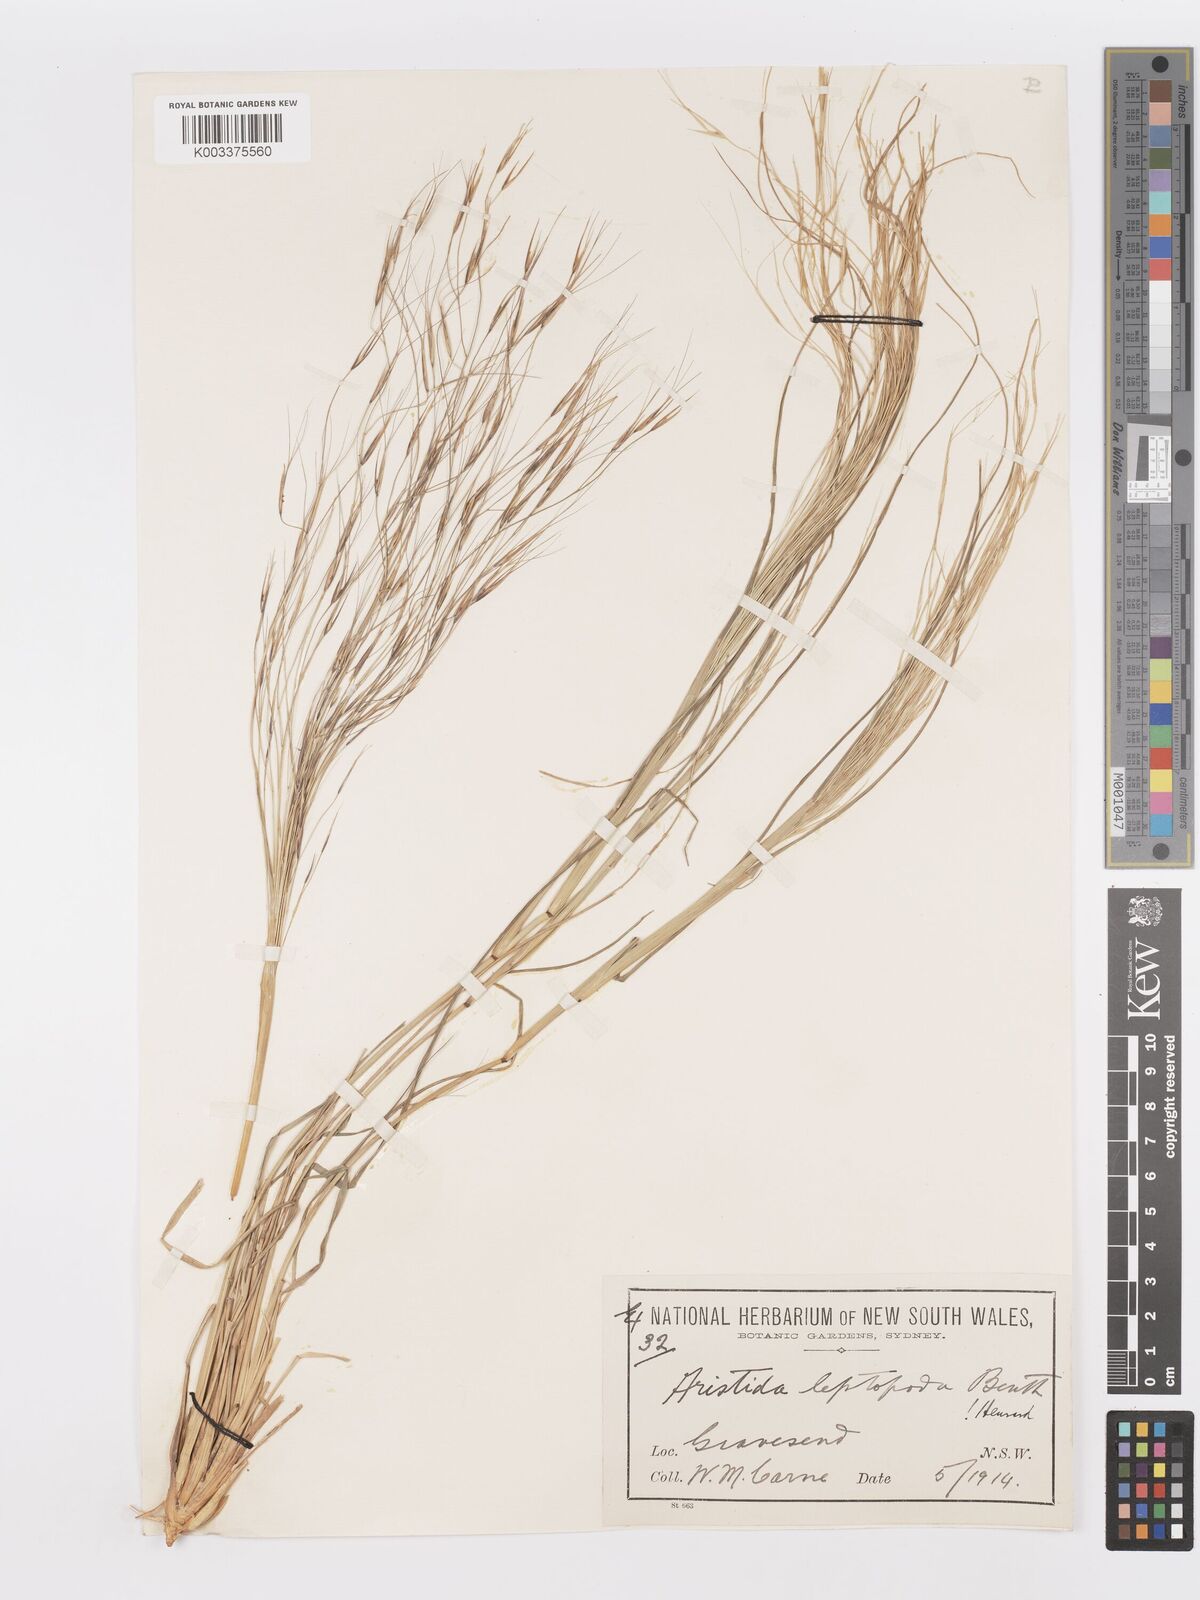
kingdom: Plantae
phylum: Tracheophyta
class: Liliopsida
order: Poales
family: Poaceae
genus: Aristida
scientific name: Aristida leptopoda
